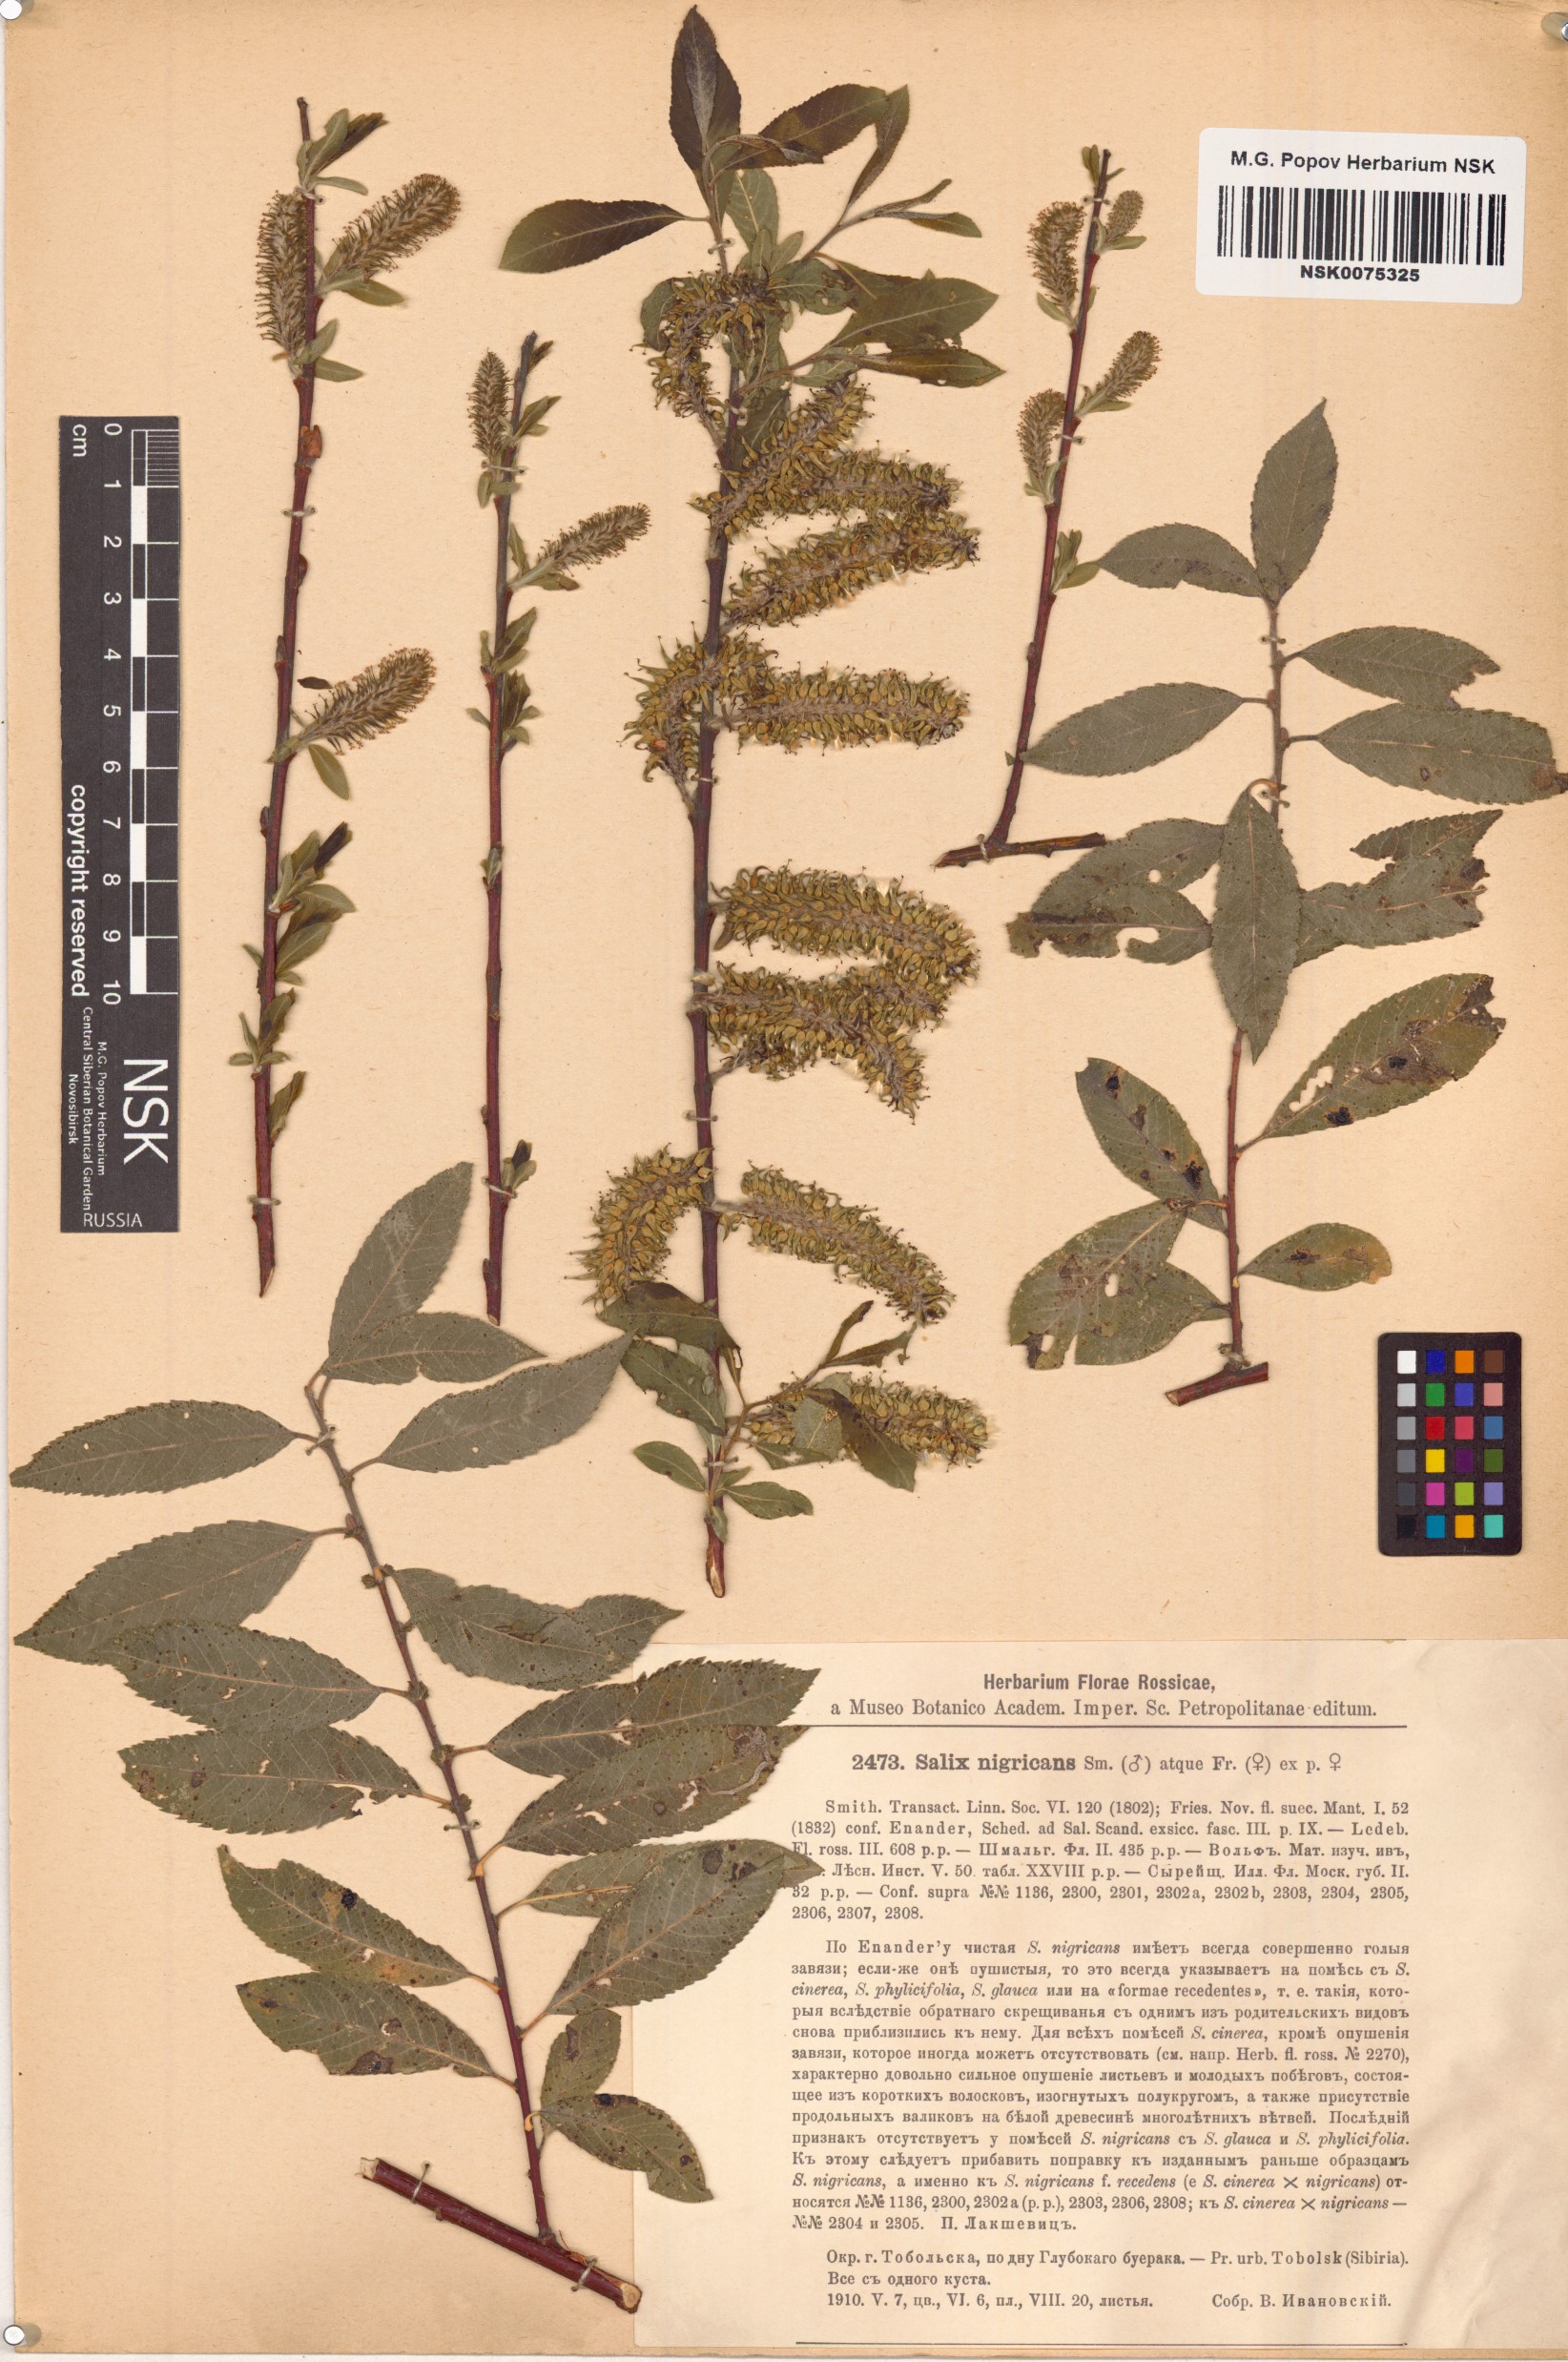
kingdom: Plantae
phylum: Tracheophyta
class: Magnoliopsida
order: Malpighiales
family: Salicaceae
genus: Salix
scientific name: Salix myrsinifolia
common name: Dark-leaved willow
